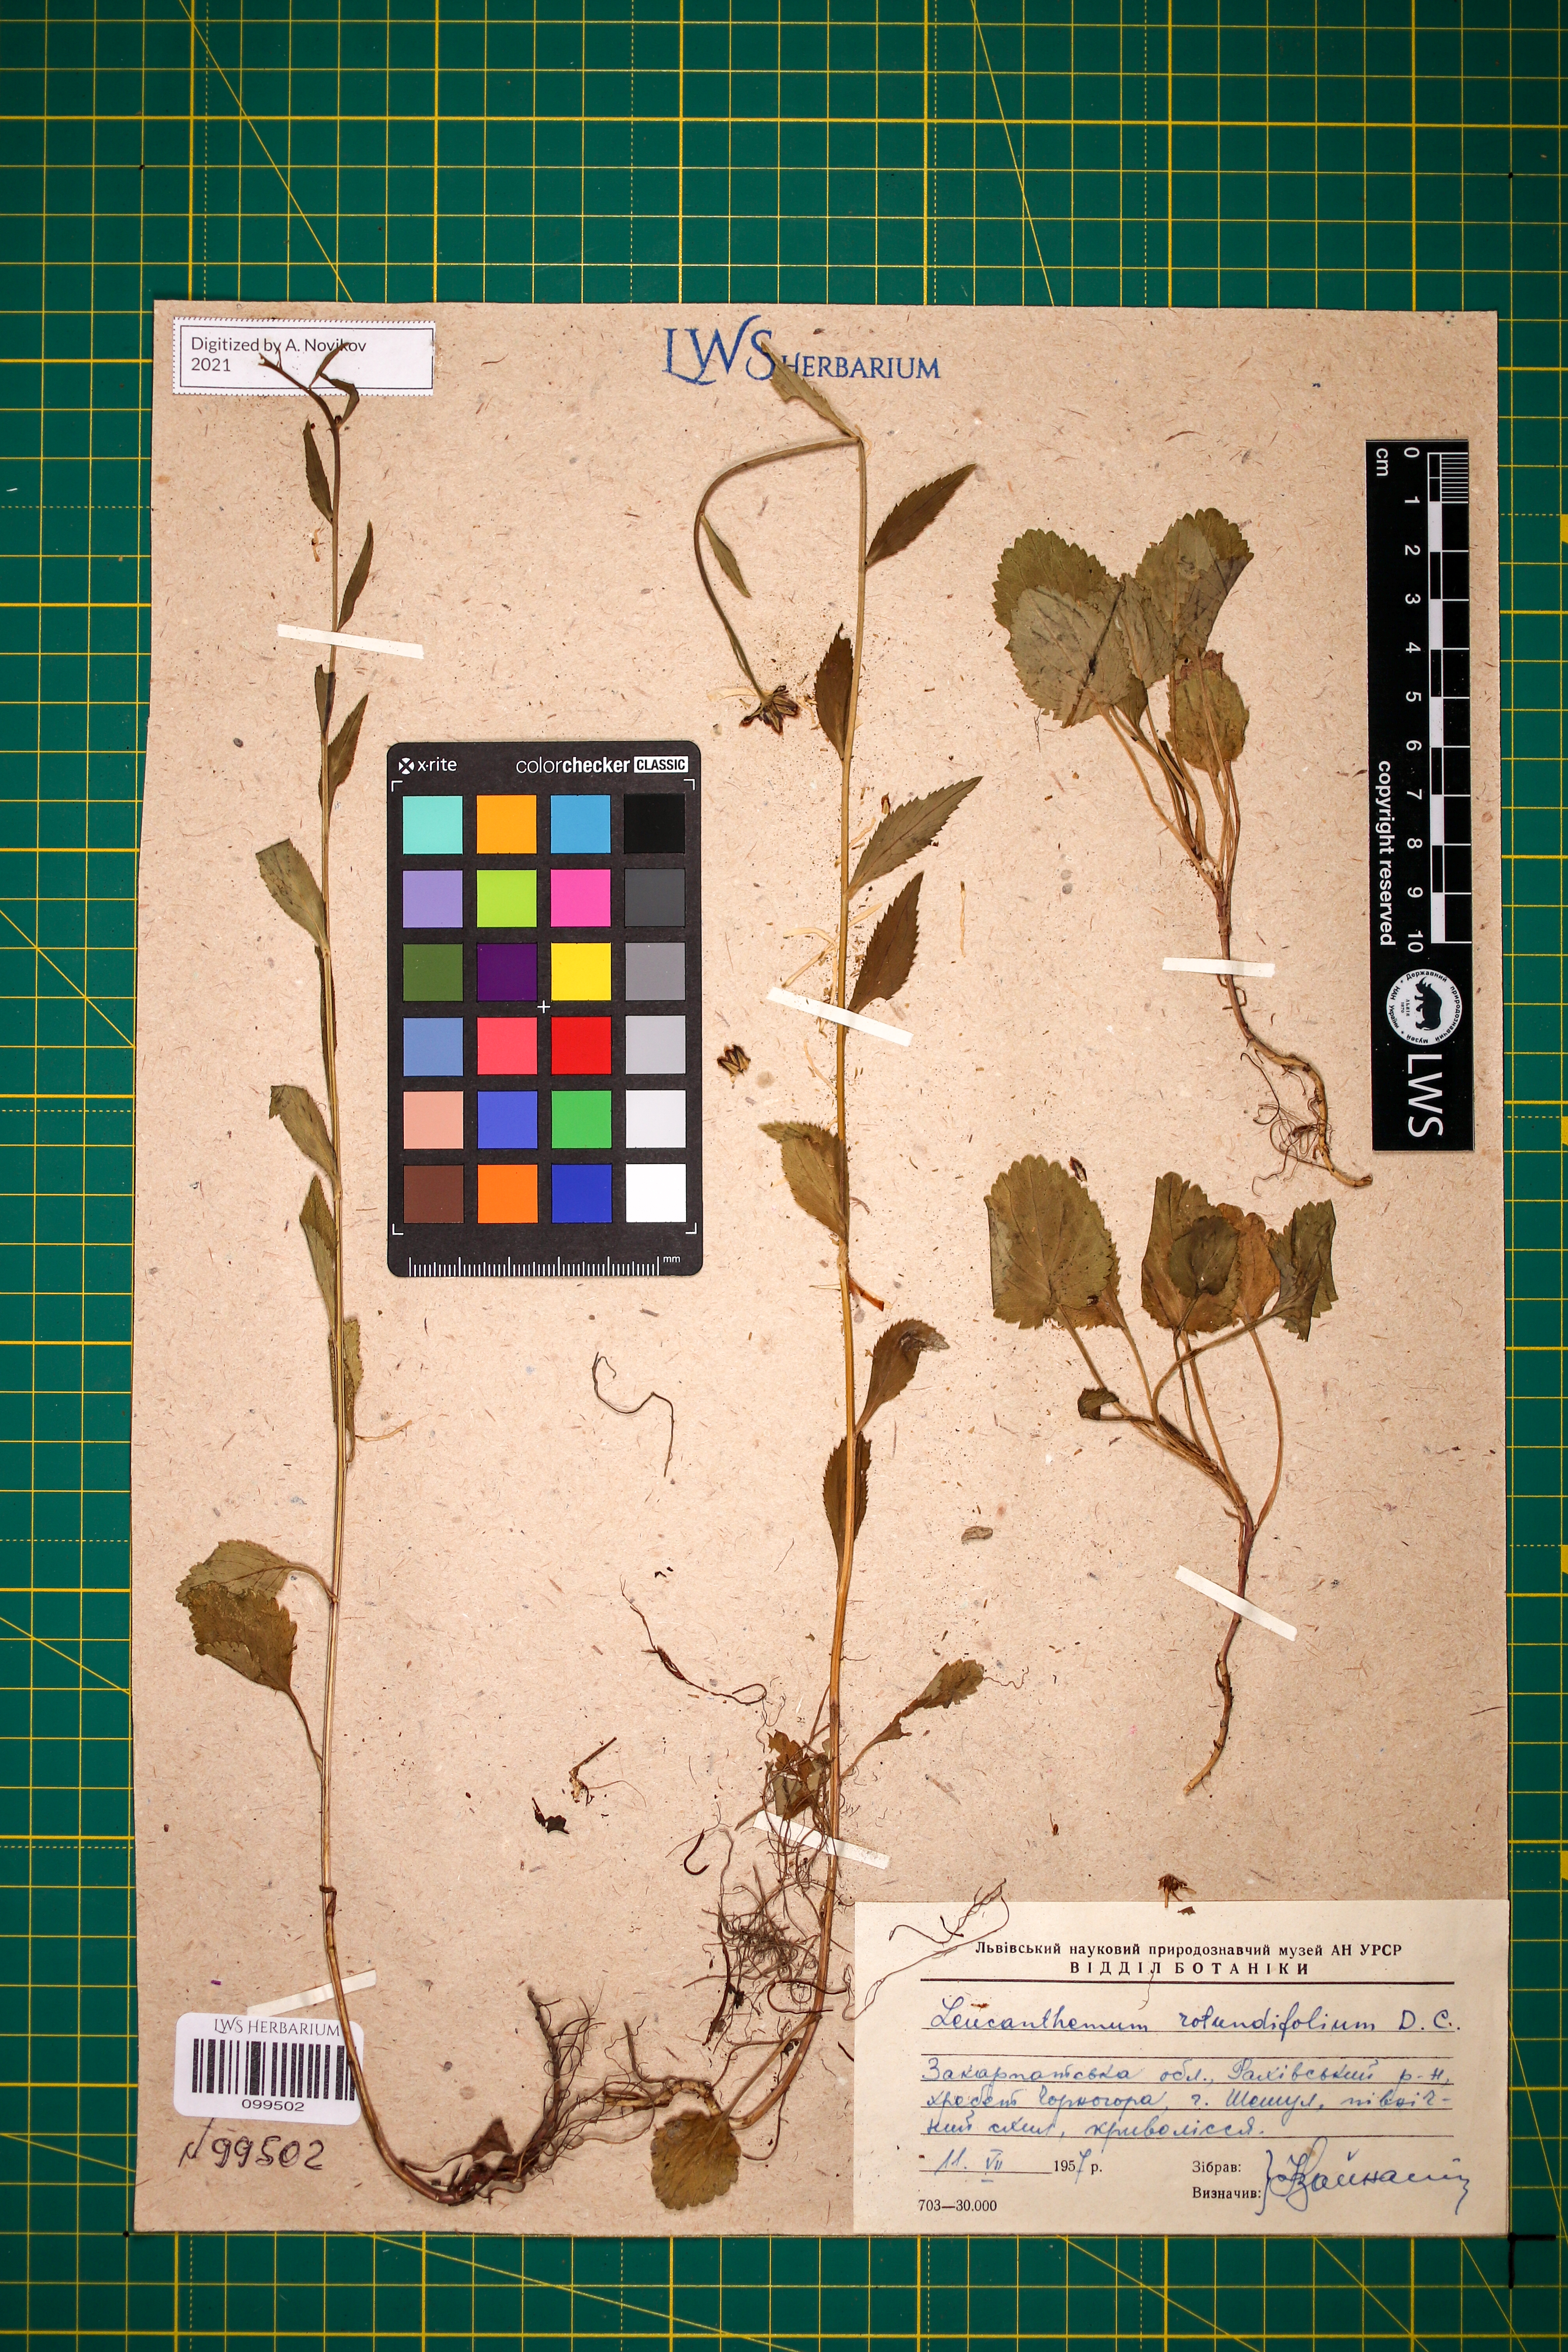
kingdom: Plantae
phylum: Tracheophyta
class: Magnoliopsida
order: Asterales
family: Asteraceae
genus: Leucanthemum
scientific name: Leucanthemum rotundifolium
